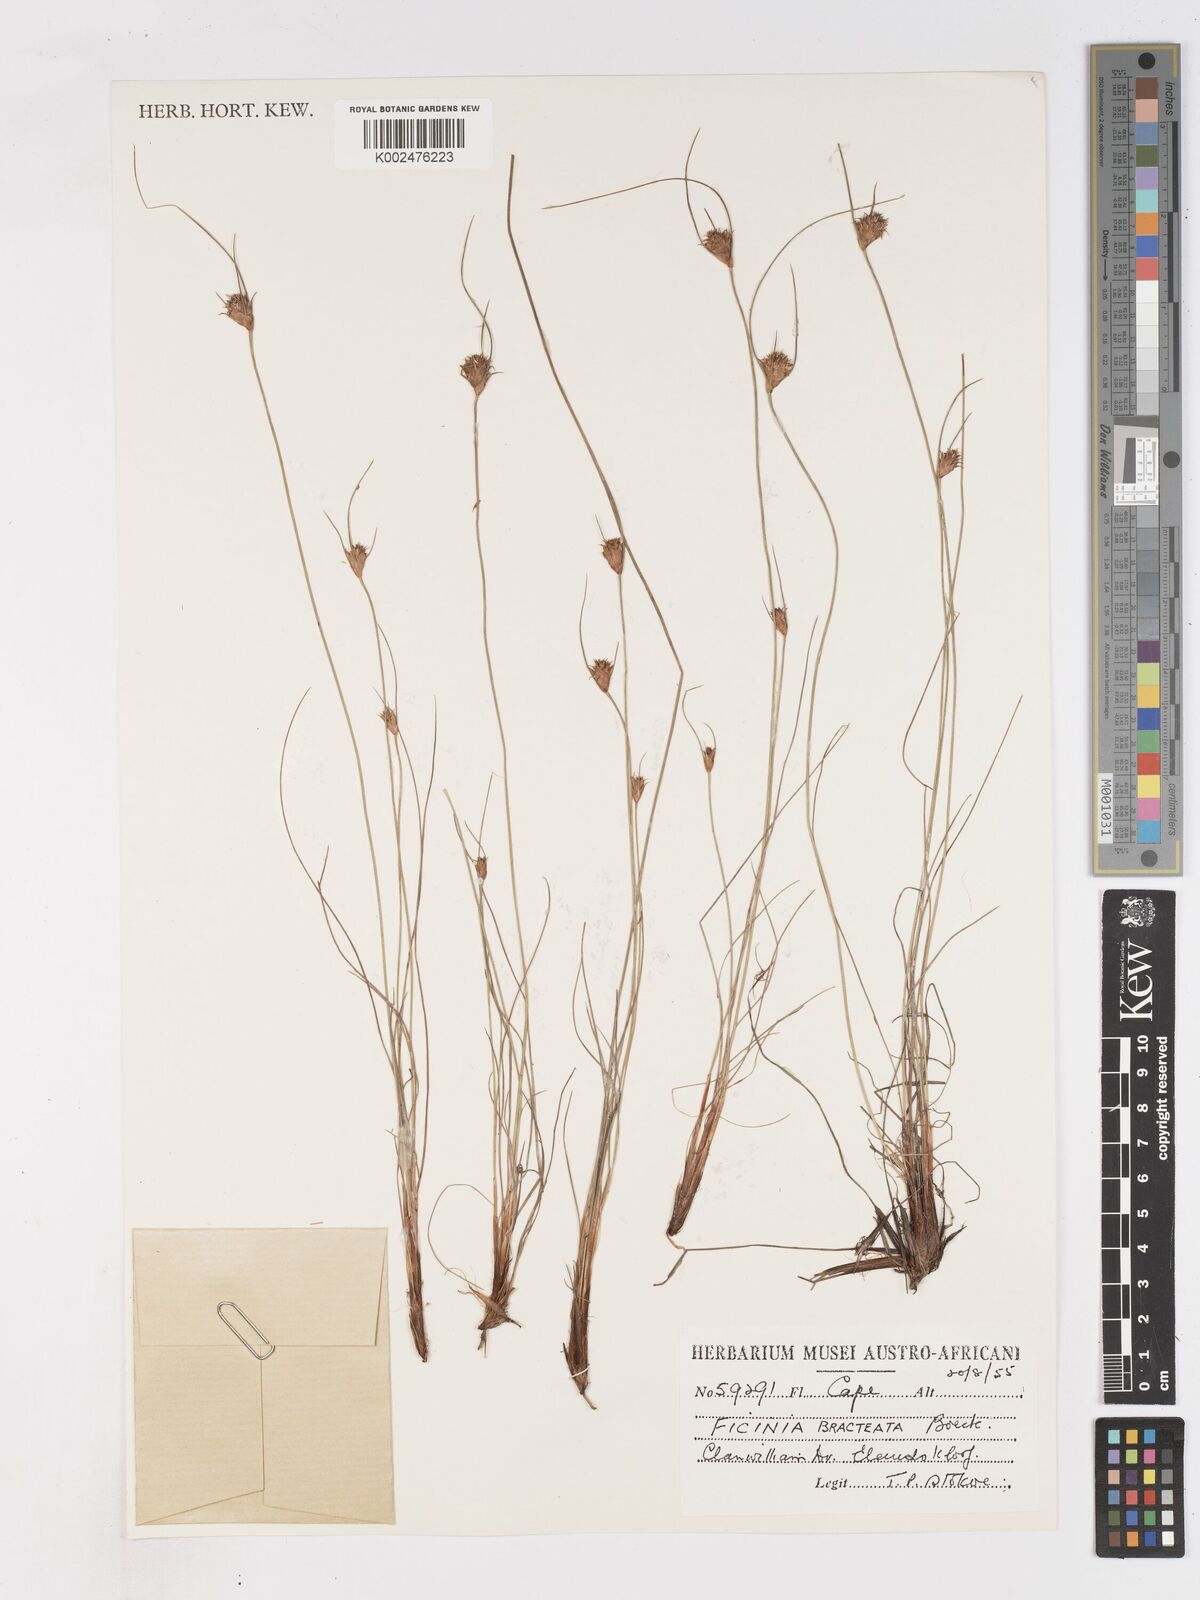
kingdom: Plantae
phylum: Tracheophyta
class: Liliopsida
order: Poales
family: Cyperaceae
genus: Ficinia
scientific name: Ficinia nigrescens
